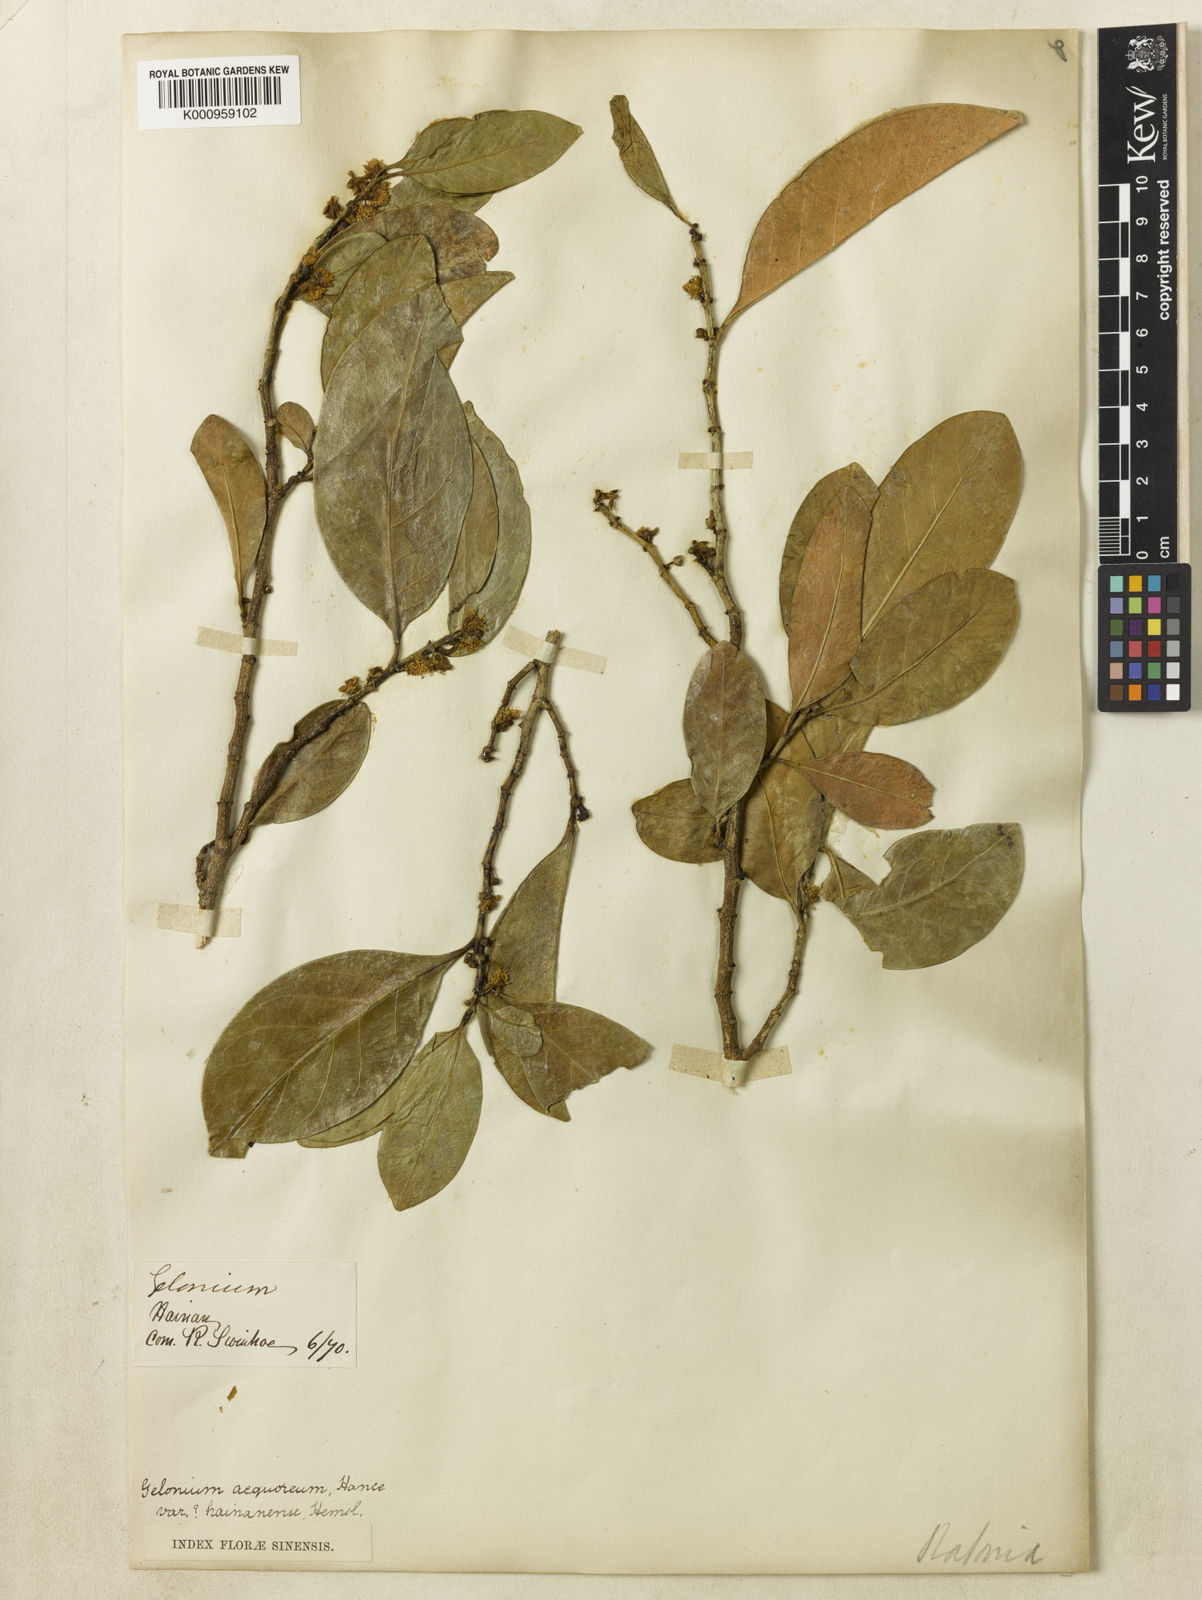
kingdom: Plantae
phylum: Tracheophyta
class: Magnoliopsida
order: Malpighiales
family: Euphorbiaceae
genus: Suregada
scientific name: Suregada aequorea
